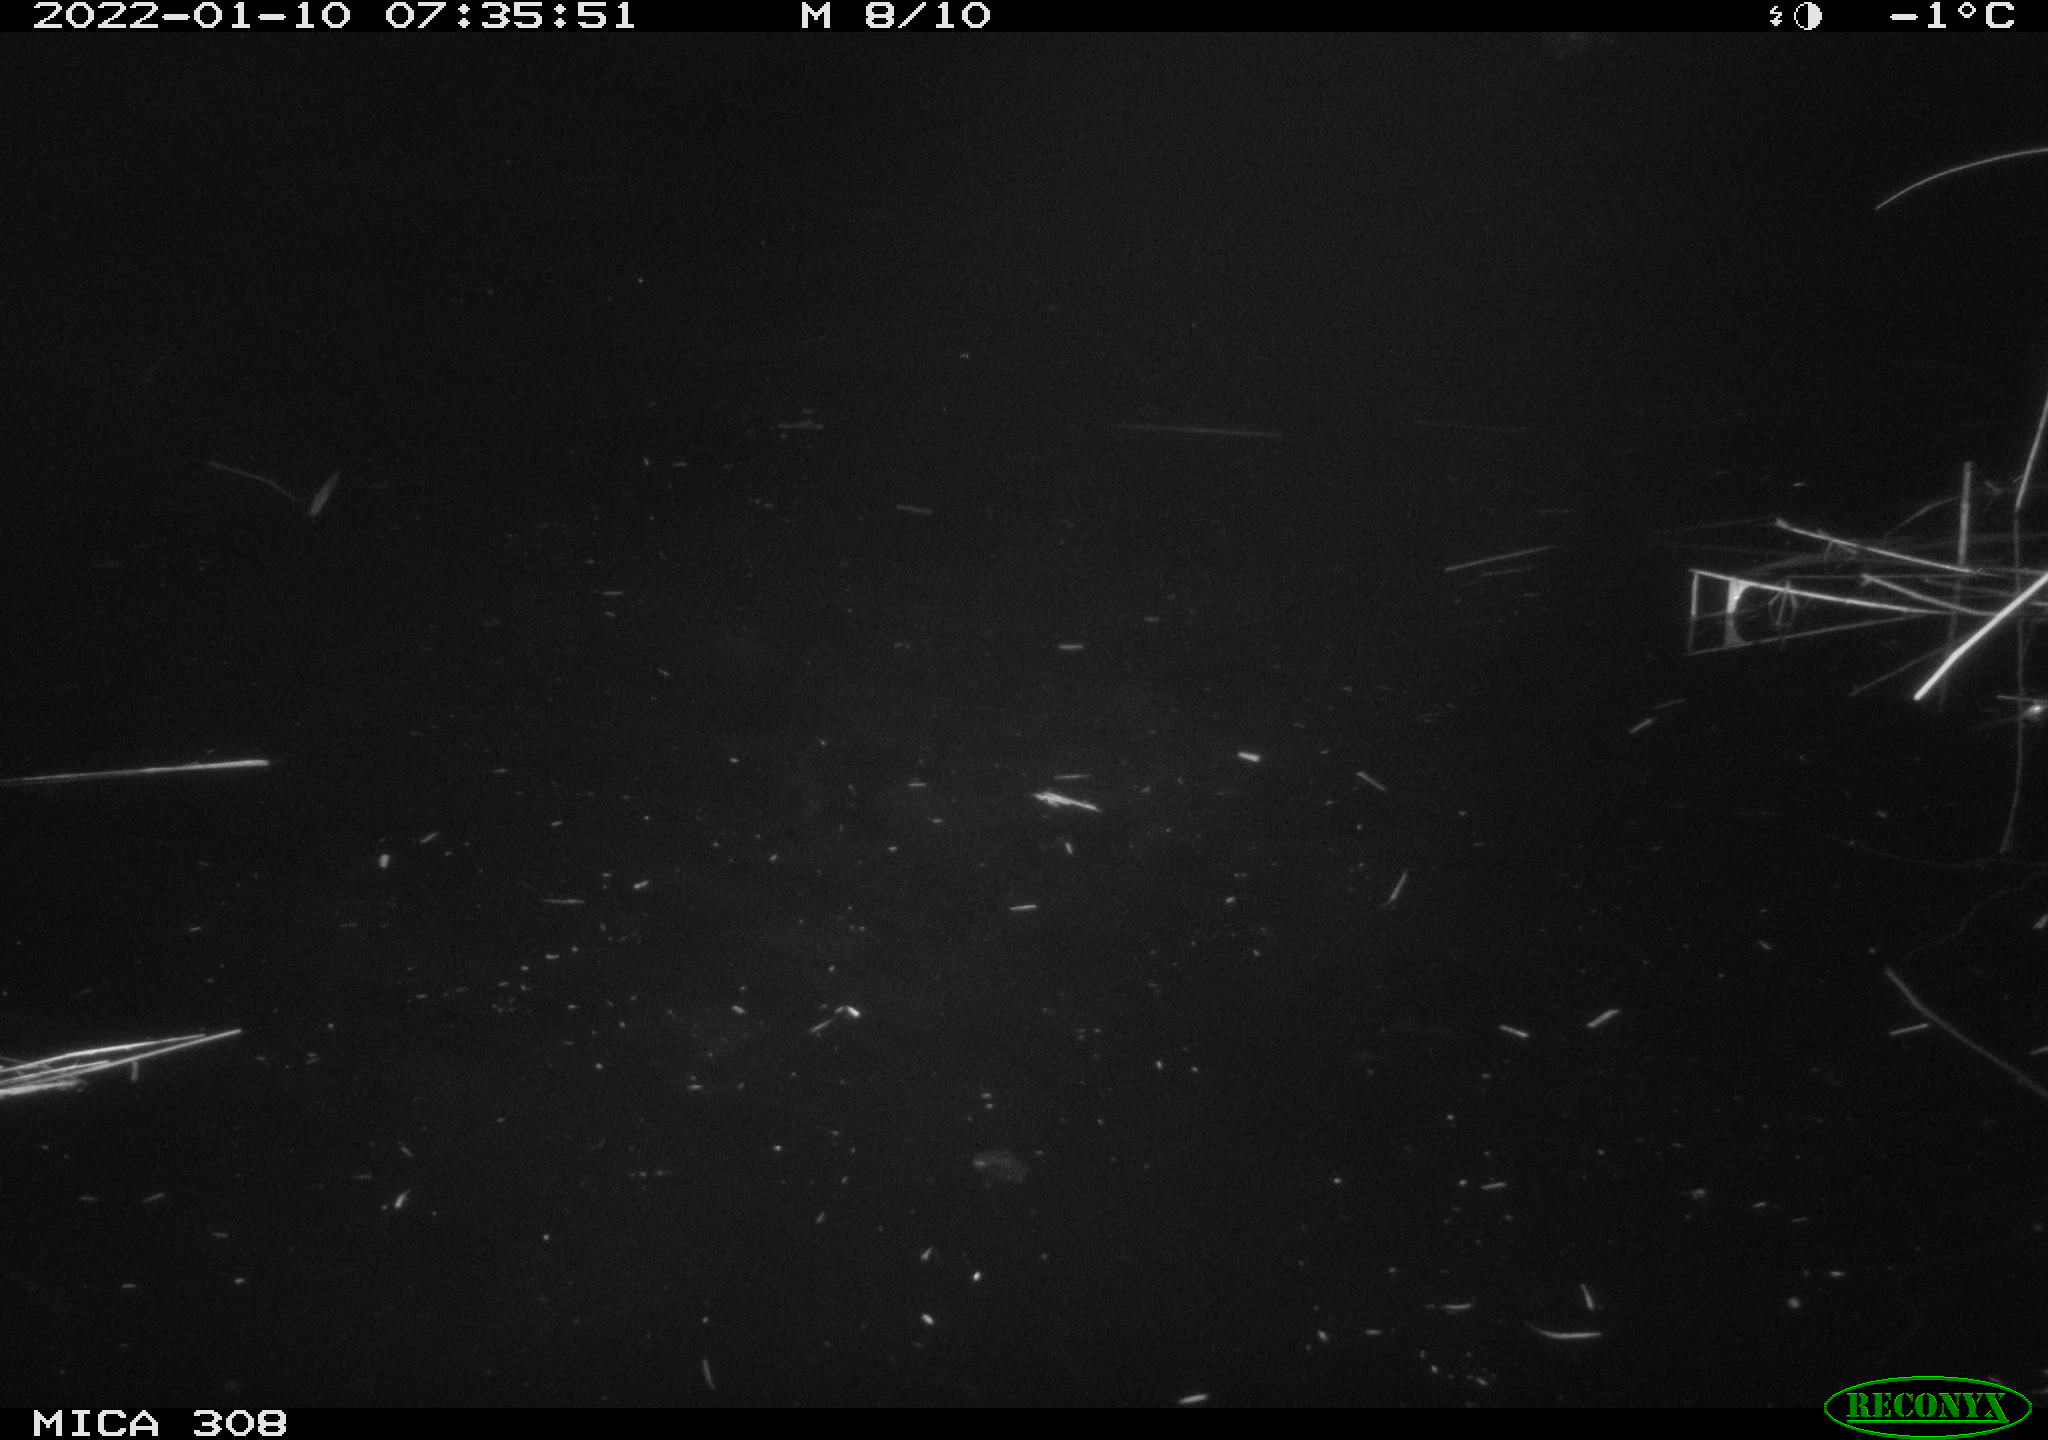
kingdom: Animalia
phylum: Chordata
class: Aves
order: Gruiformes
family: Rallidae
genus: Fulica
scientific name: Fulica atra
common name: Eurasian coot
